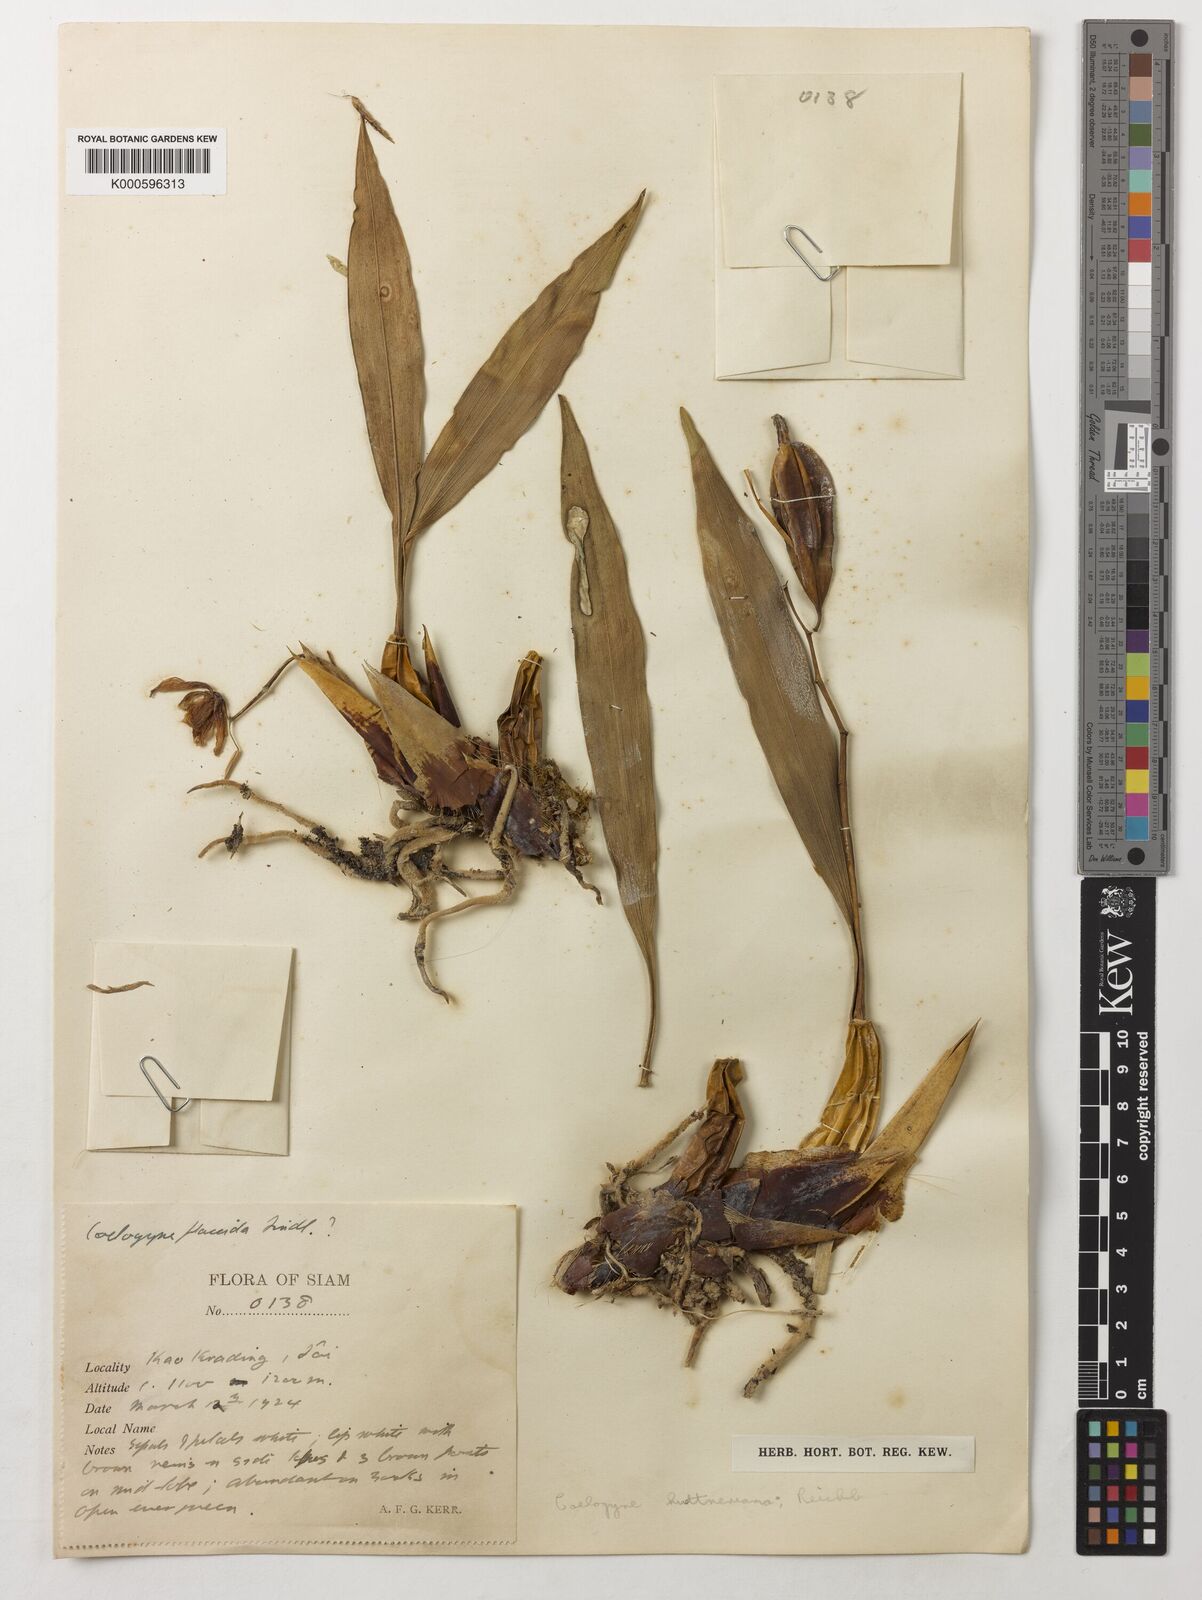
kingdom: Plantae
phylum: Tracheophyta
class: Liliopsida
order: Asparagales
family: Orchidaceae
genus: Coelogyne
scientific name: Coelogyne huettneriana
